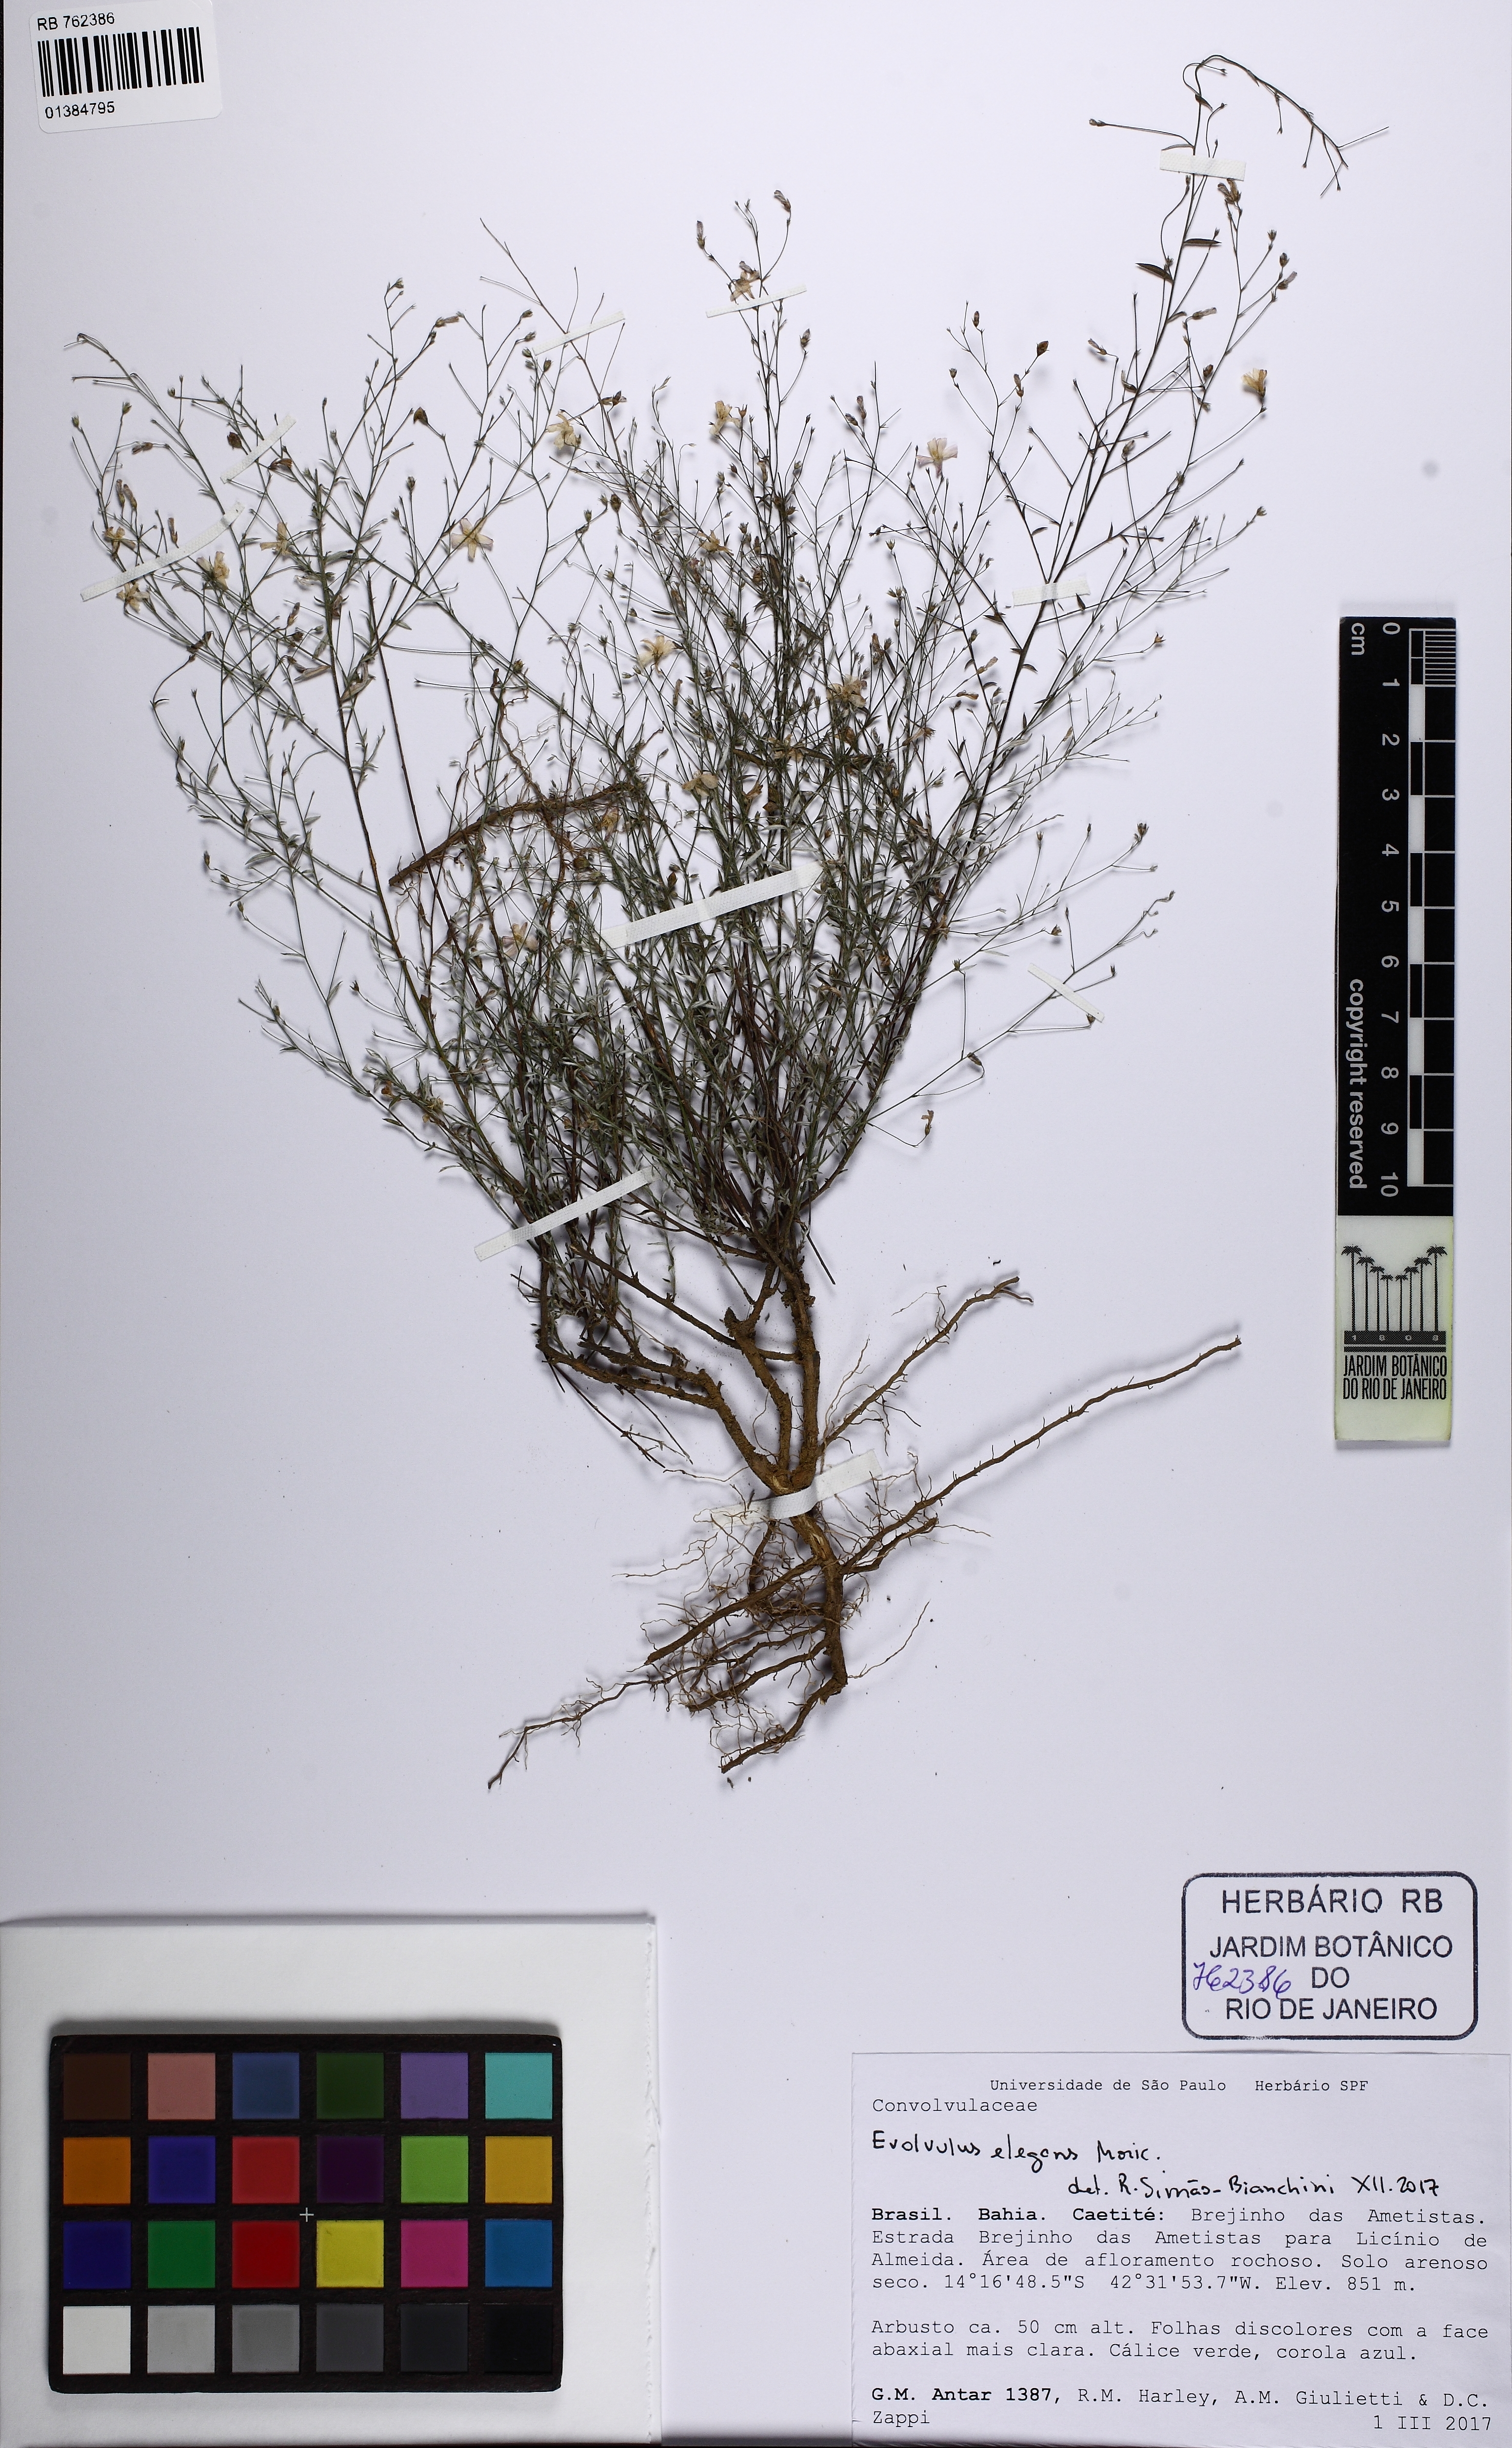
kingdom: Plantae
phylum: Tracheophyta
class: Magnoliopsida
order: Solanales
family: Convolvulaceae
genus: Evolvulus
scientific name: Evolvulus elegans
